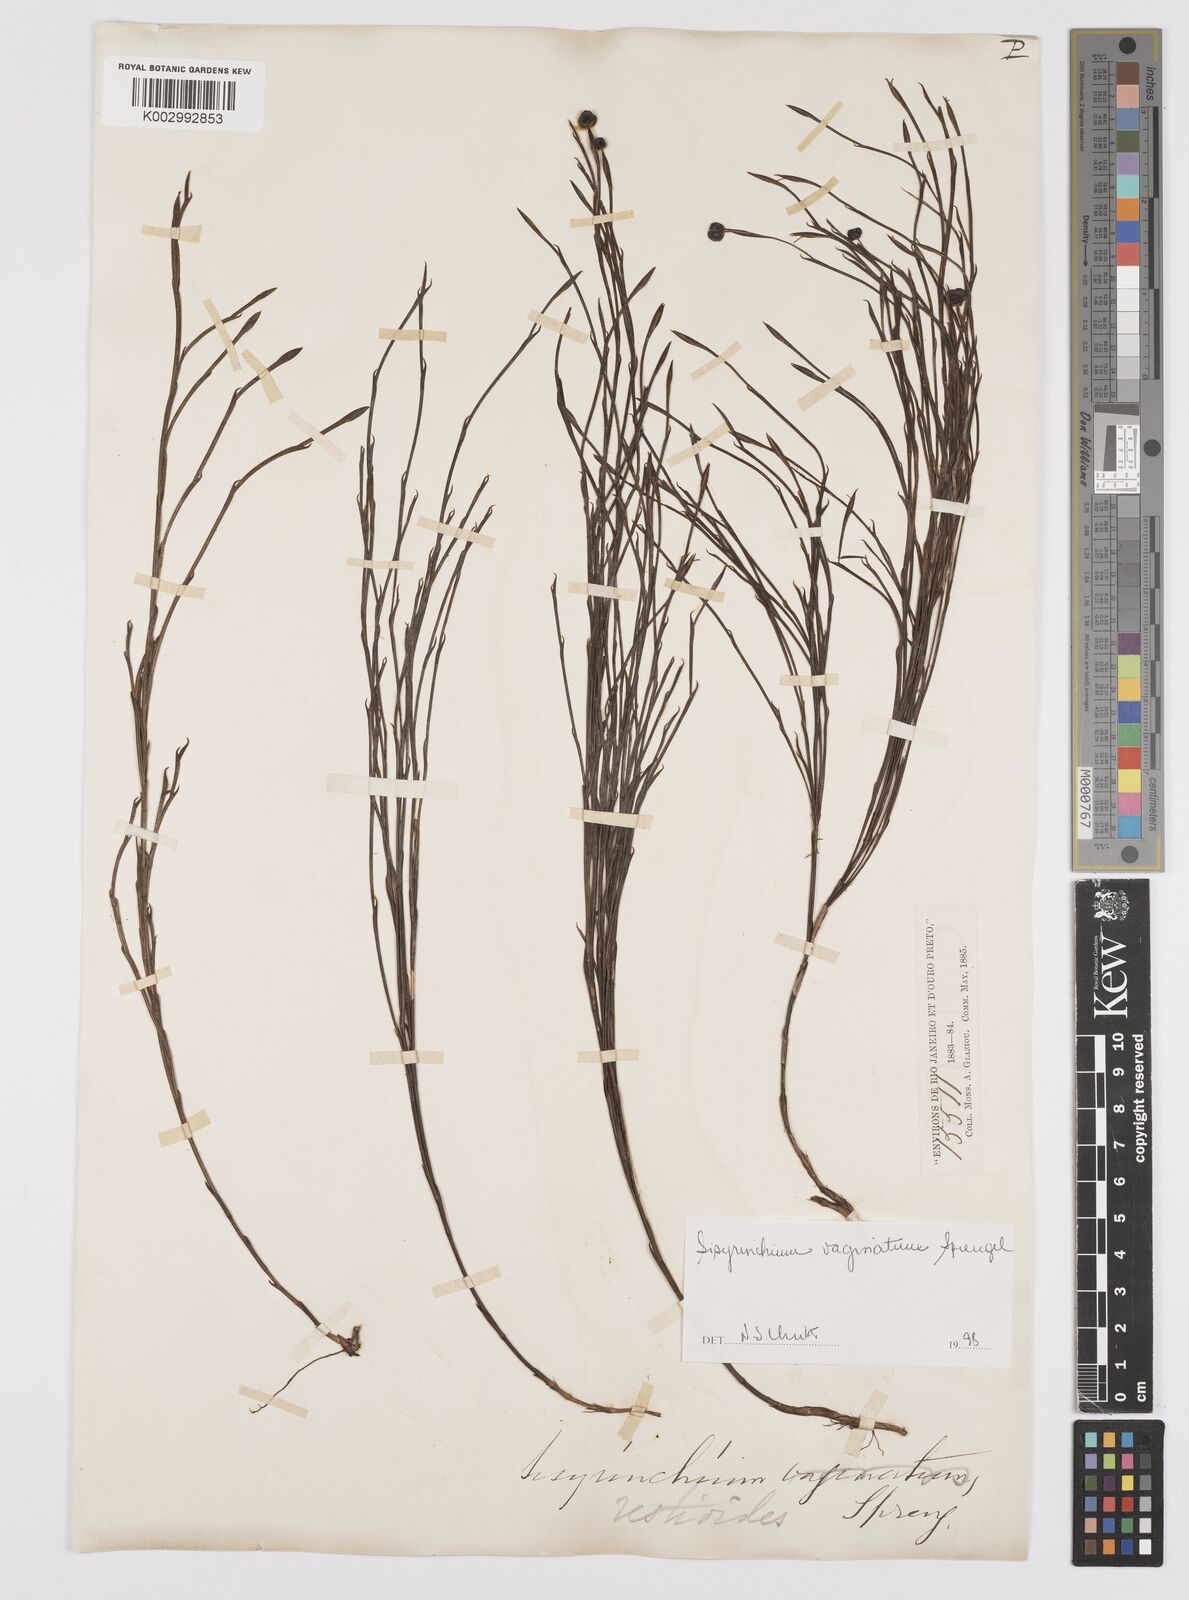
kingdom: Plantae
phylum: Tracheophyta
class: Liliopsida
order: Asparagales
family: Iridaceae
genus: Sisyrinchium
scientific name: Sisyrinchium vaginatum
